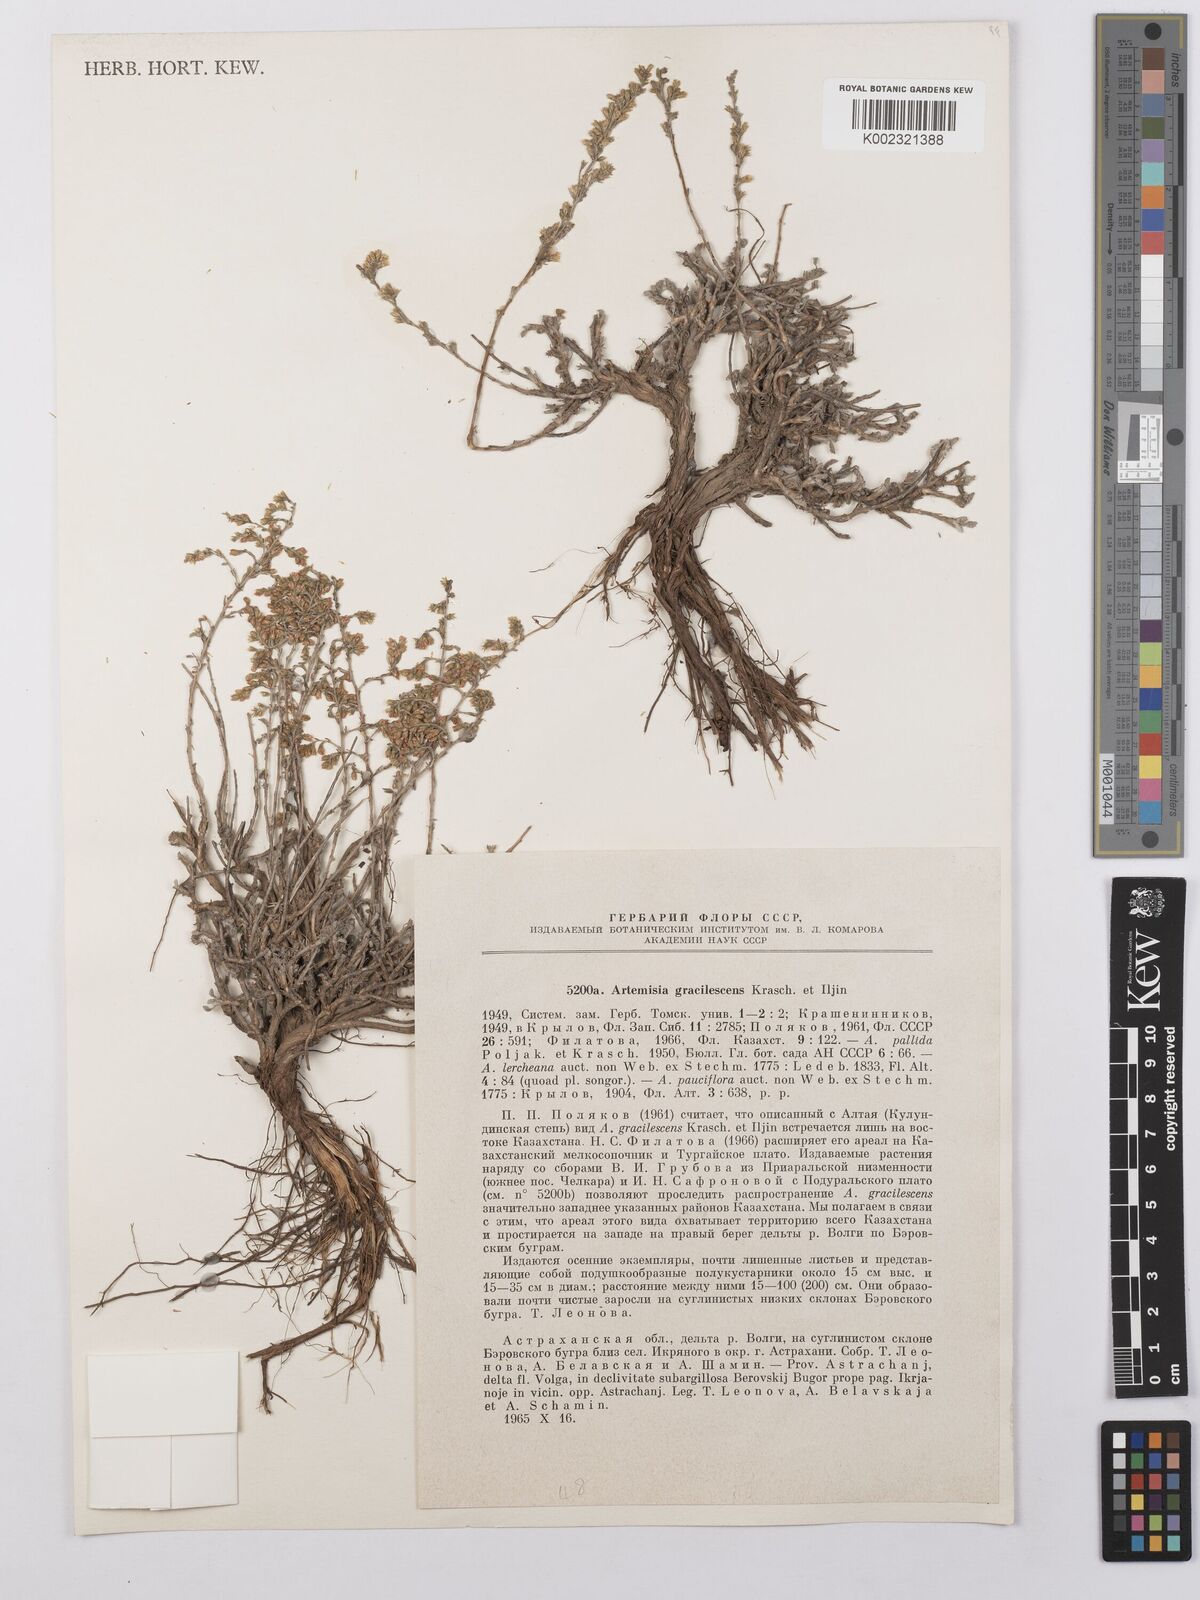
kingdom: Plantae
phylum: Tracheophyta
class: Magnoliopsida
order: Asterales
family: Asteraceae
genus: Artemisia
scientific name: Artemisia gracilescens
